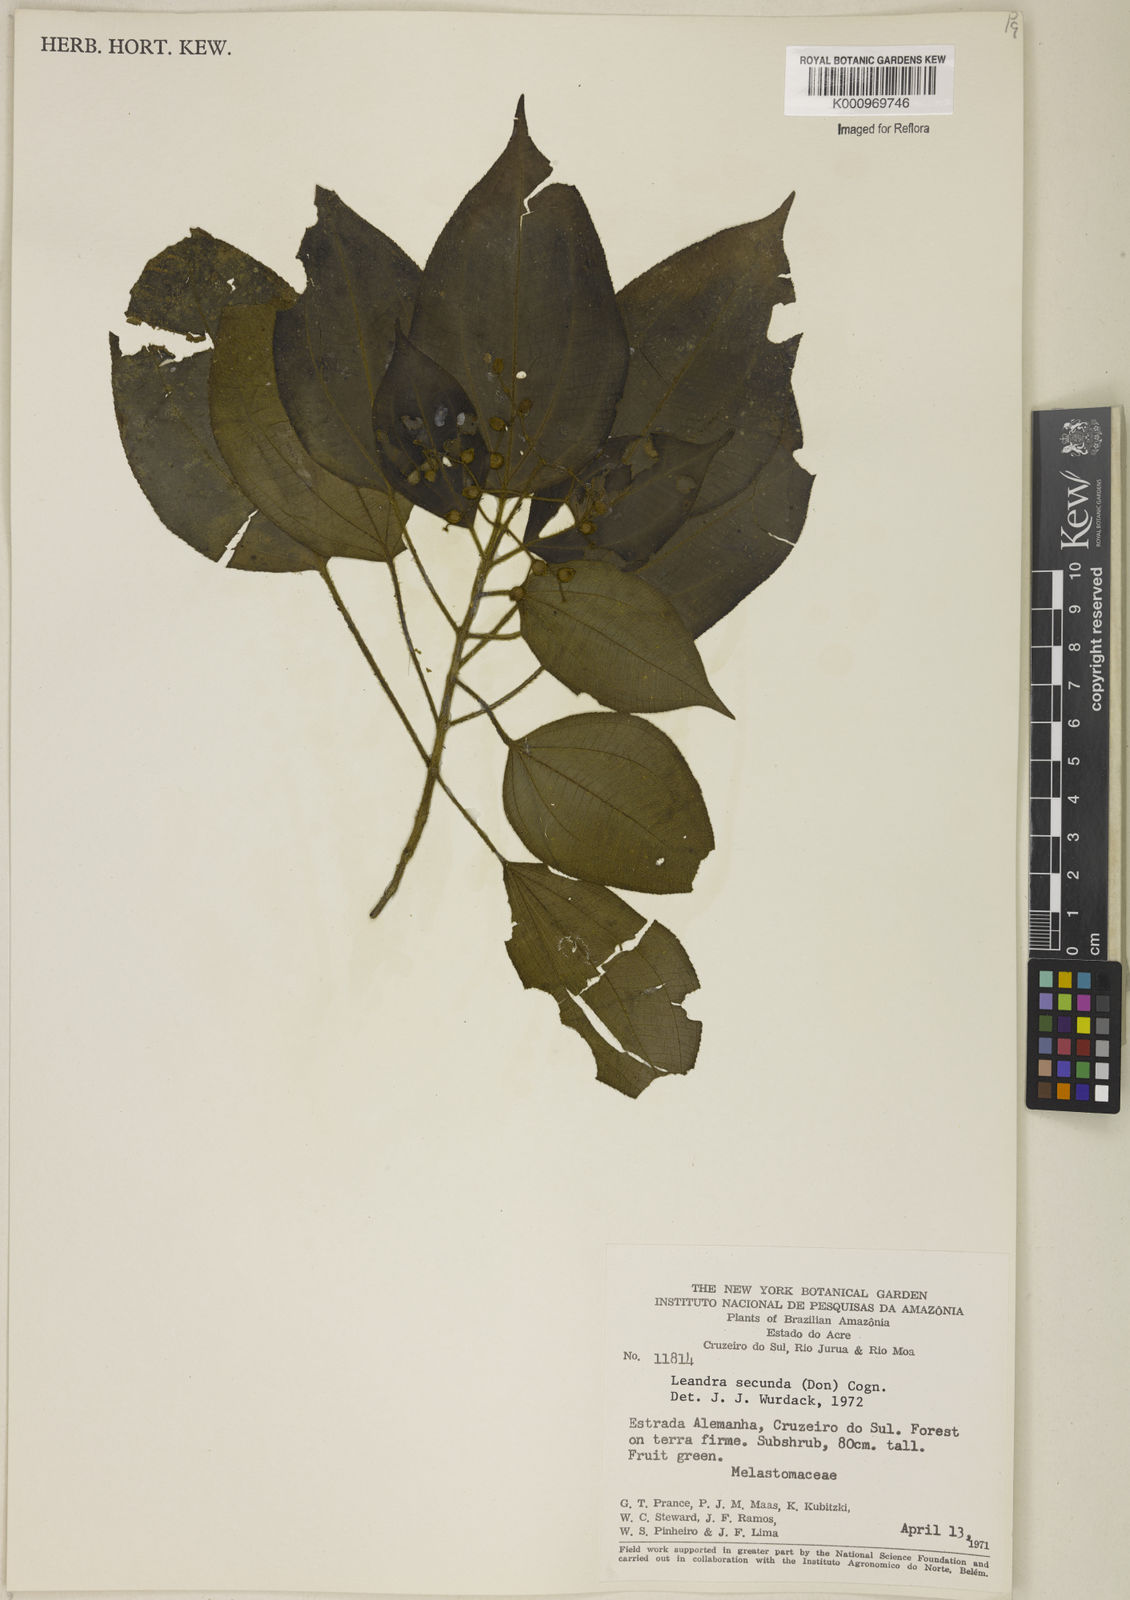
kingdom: Plantae
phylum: Tracheophyta
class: Magnoliopsida
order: Myrtales
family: Melastomataceae
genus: Miconia
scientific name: Miconia neosecunda
